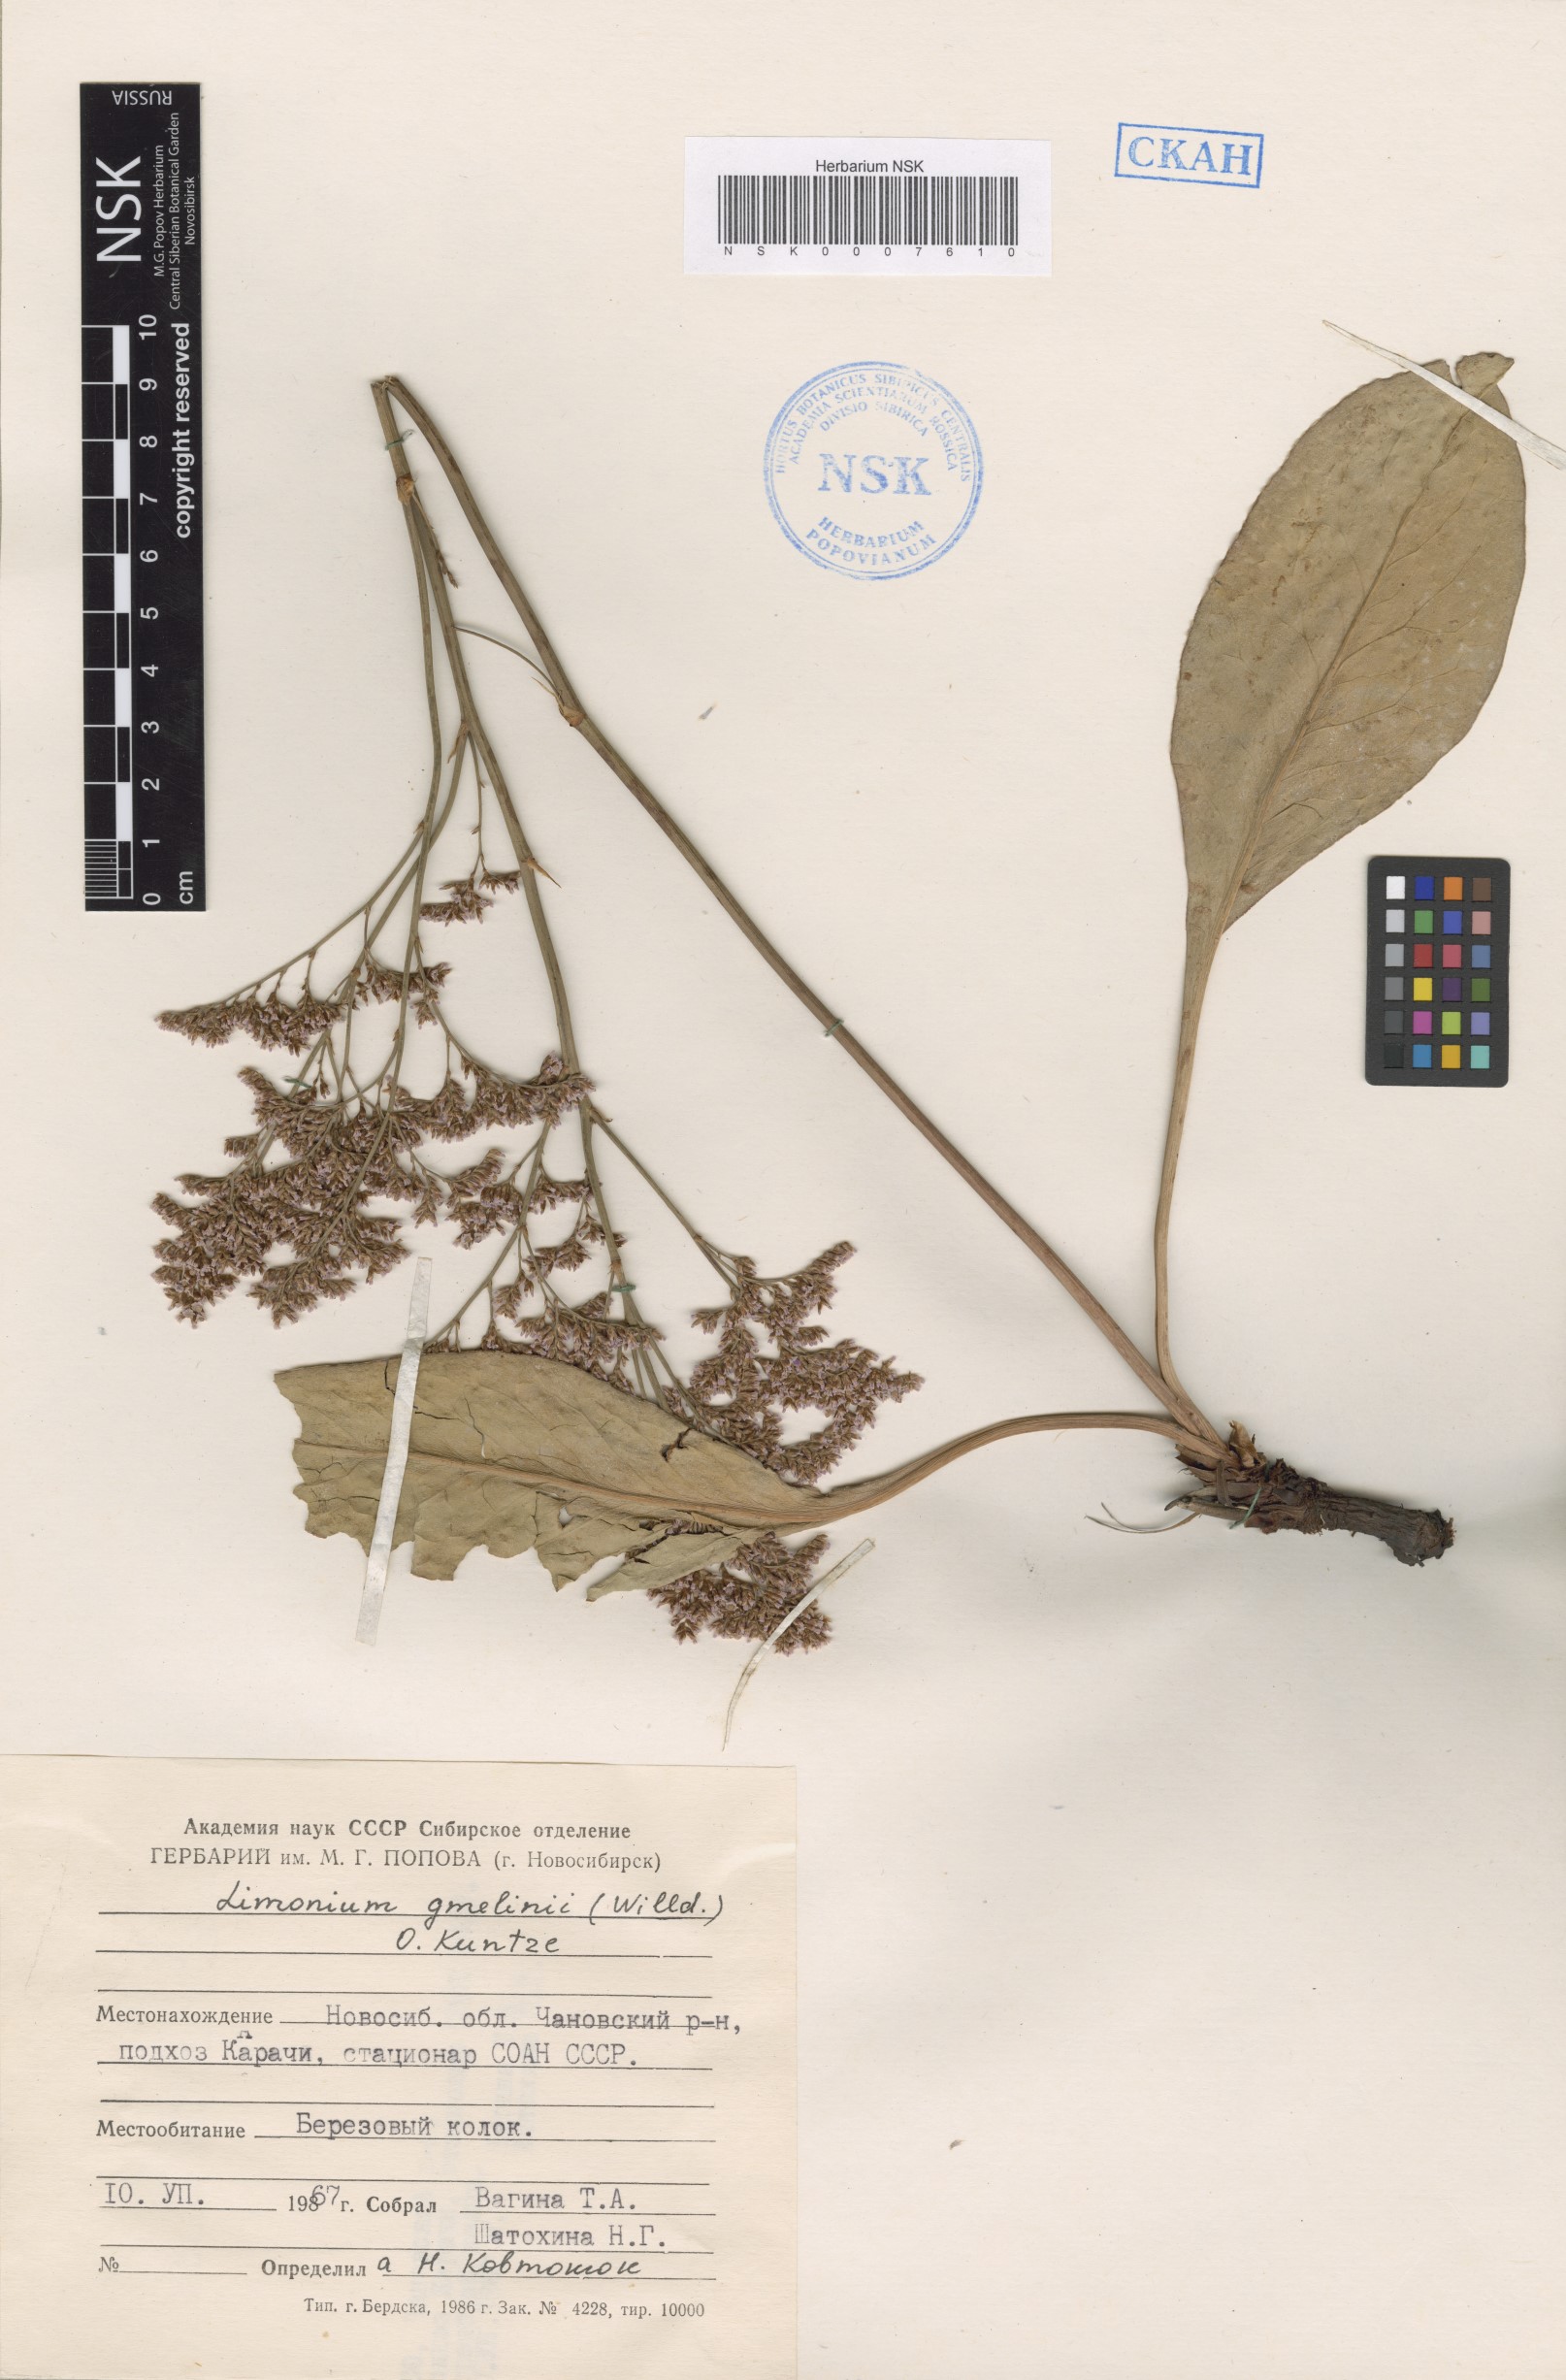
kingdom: Plantae
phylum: Tracheophyta
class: Magnoliopsida
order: Caryophyllales
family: Plumbaginaceae
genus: Limonium
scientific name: Limonium gmelini
